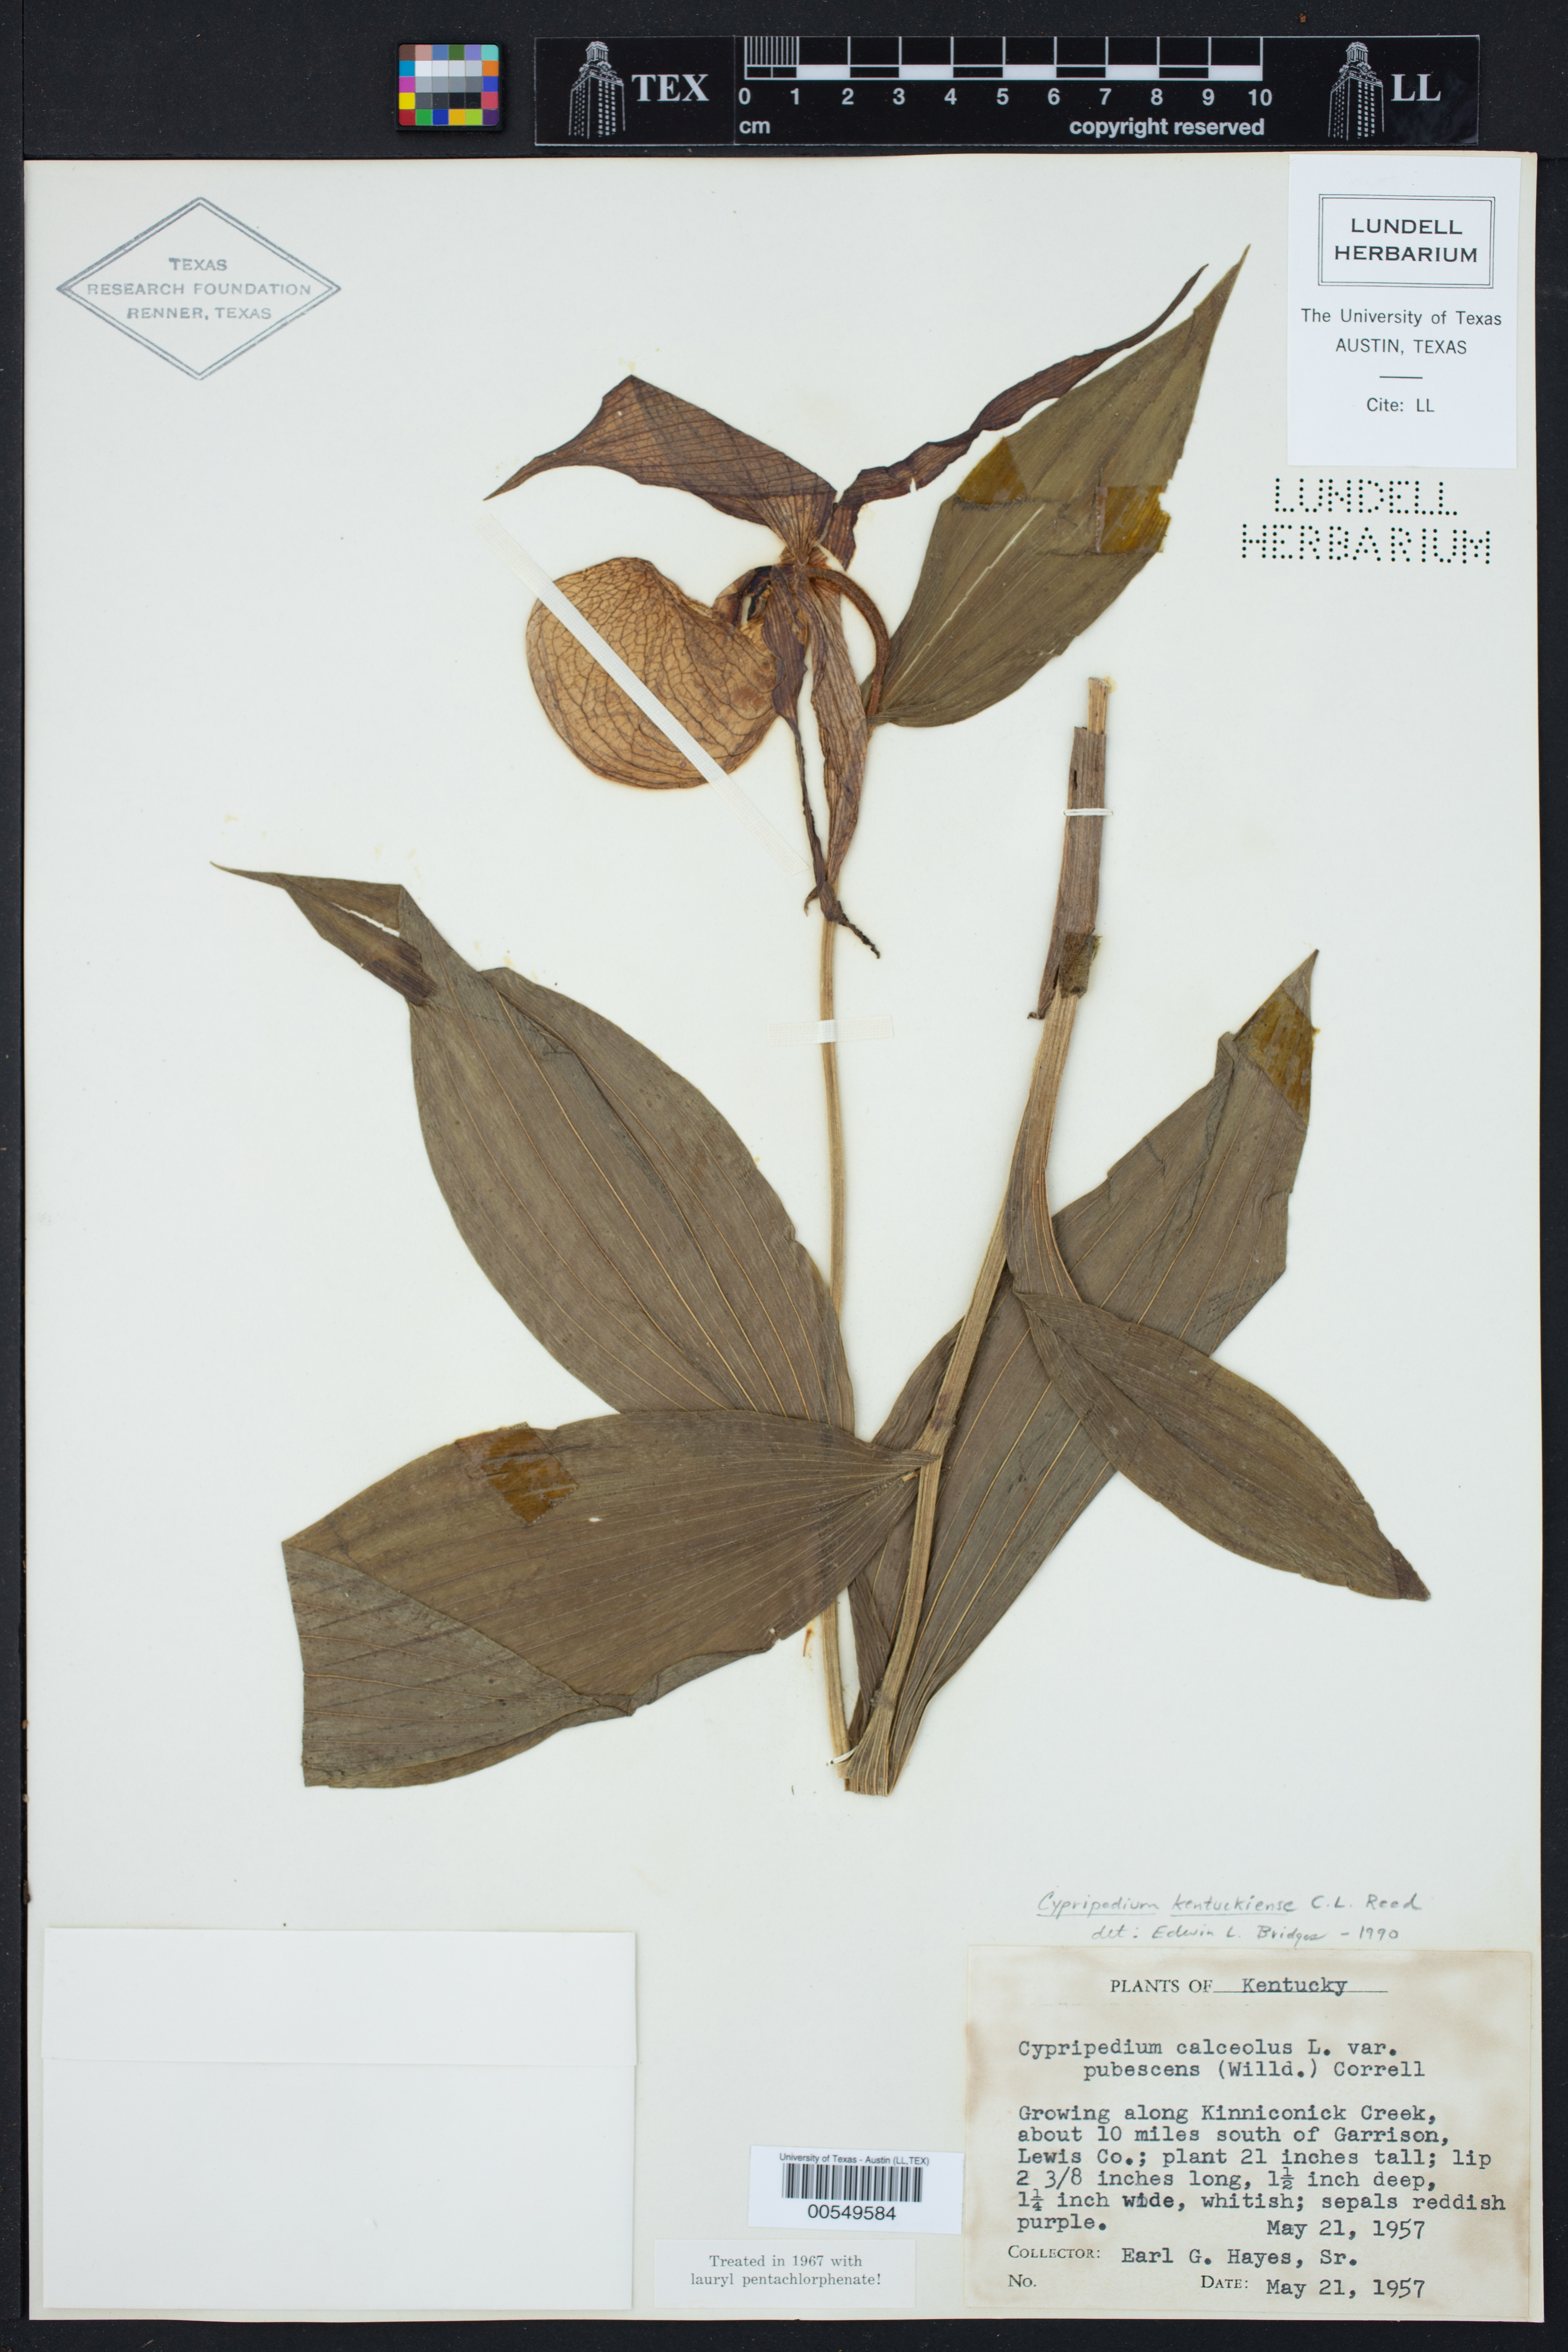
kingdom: Plantae
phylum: Tracheophyta
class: Liliopsida
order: Asparagales
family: Orchidaceae
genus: Cypripedium
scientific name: Cypripedium kentuckiense
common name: Kentucky lady's slipper
